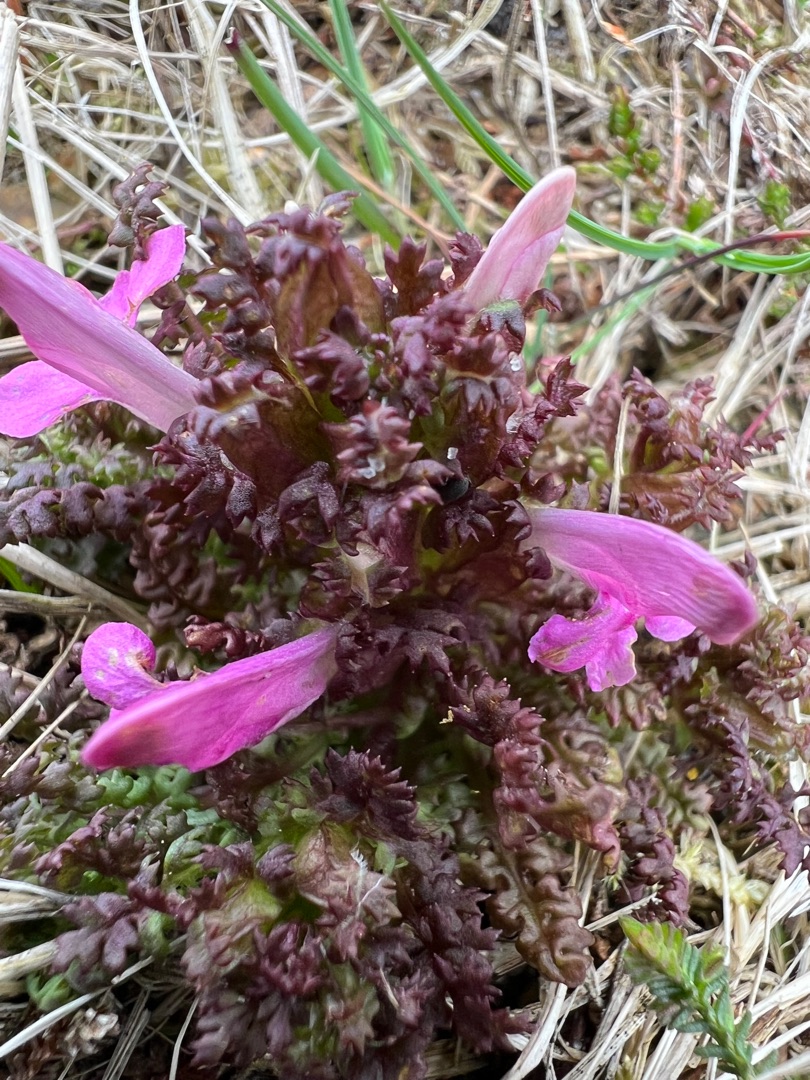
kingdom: Plantae
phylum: Tracheophyta
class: Magnoliopsida
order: Lamiales
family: Orobanchaceae
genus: Pedicularis
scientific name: Pedicularis sylvatica
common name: Mose-troldurt
